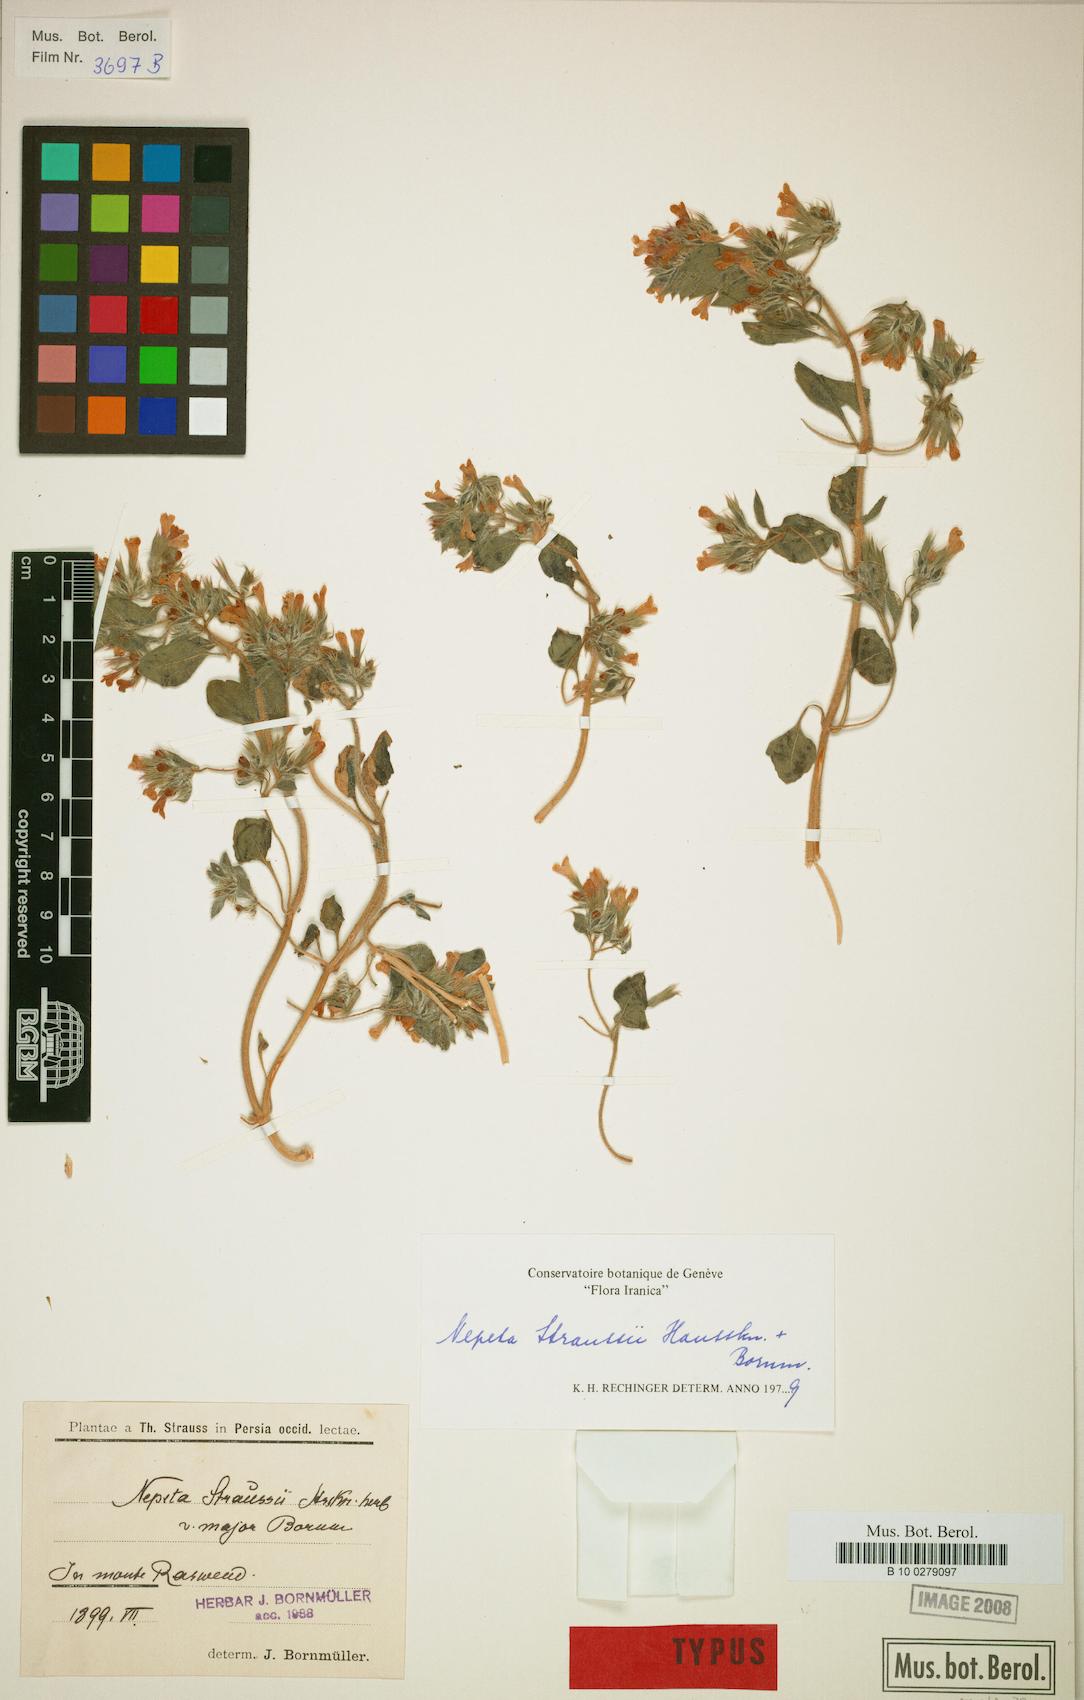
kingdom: Plantae
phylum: Tracheophyta
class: Magnoliopsida
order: Lamiales
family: Lamiaceae
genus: Nepeta
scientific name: Nepeta straussii
